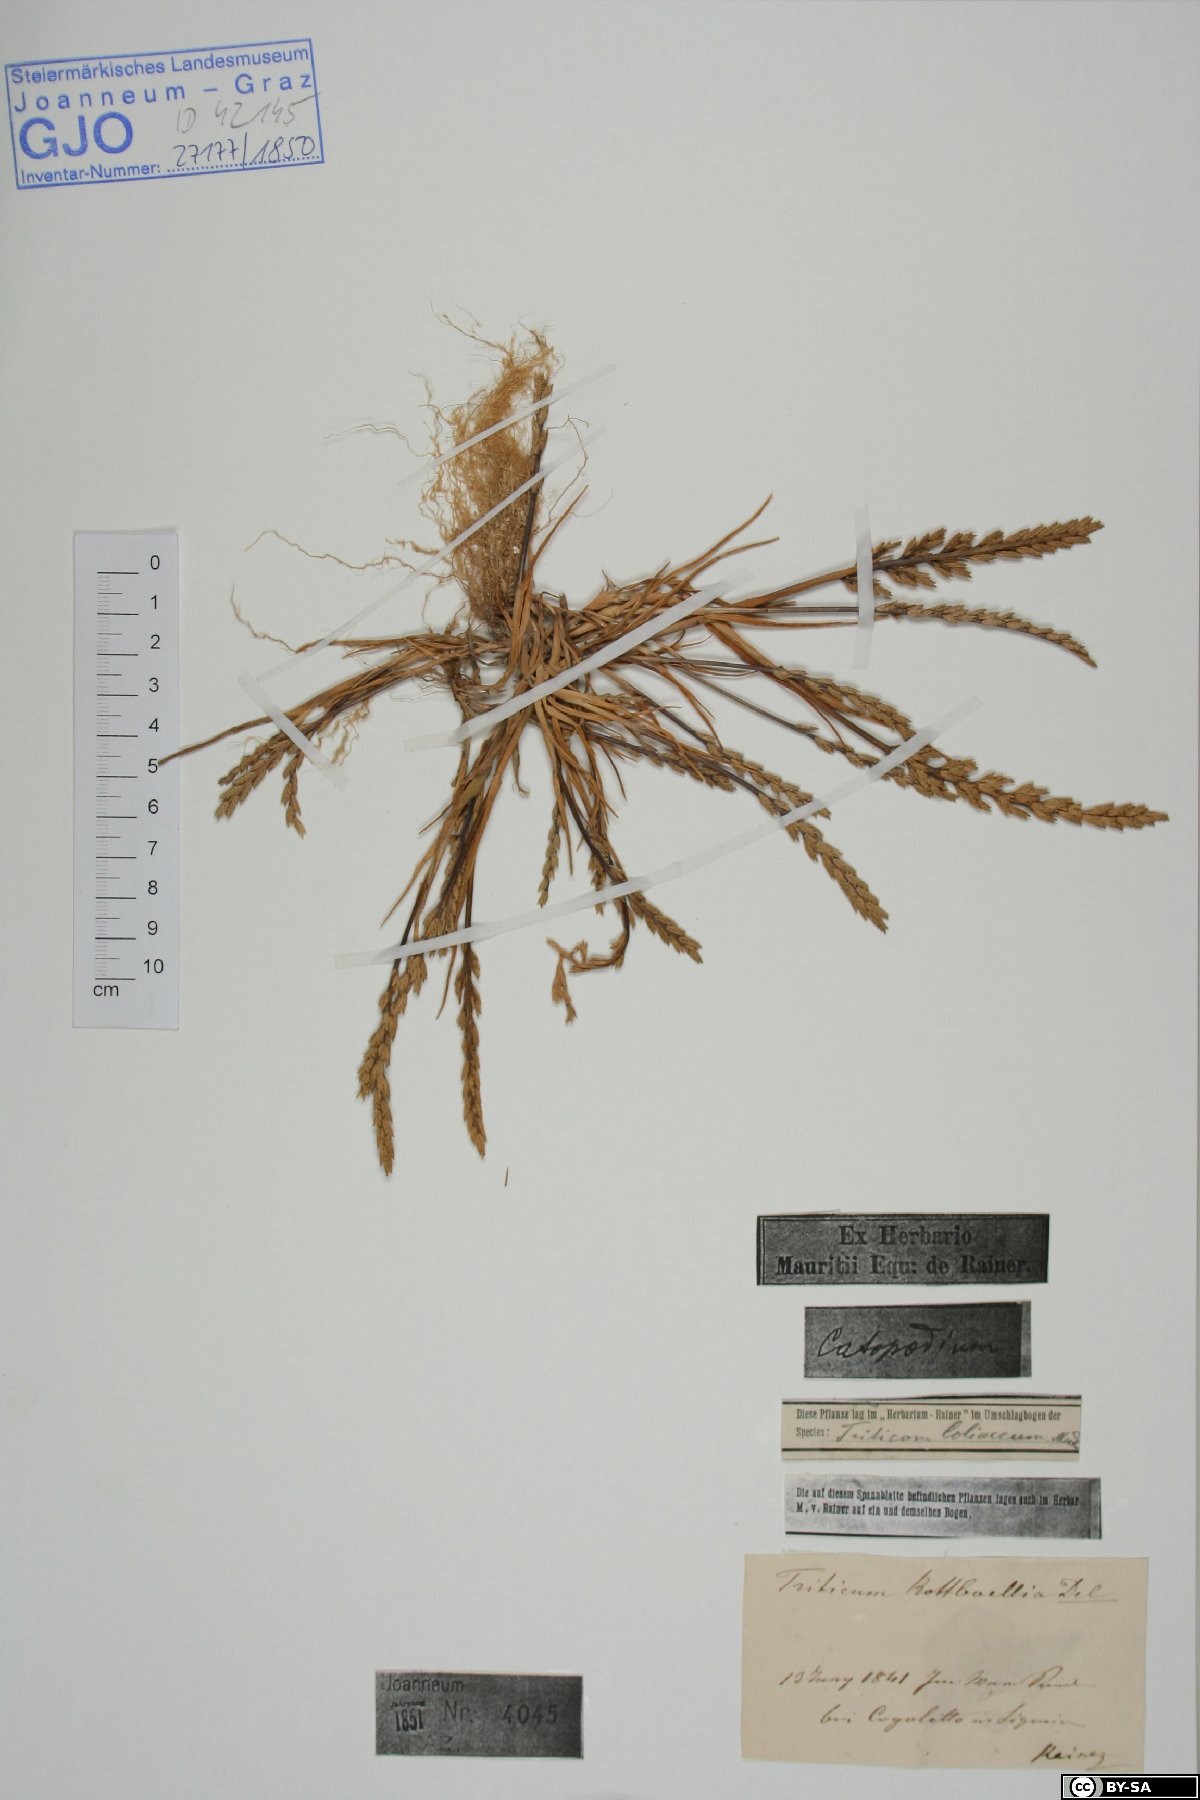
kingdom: Plantae
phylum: Tracheophyta
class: Liliopsida
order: Poales
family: Poaceae
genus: Catapodium
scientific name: Catapodium marinum
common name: Sea fern-grass
